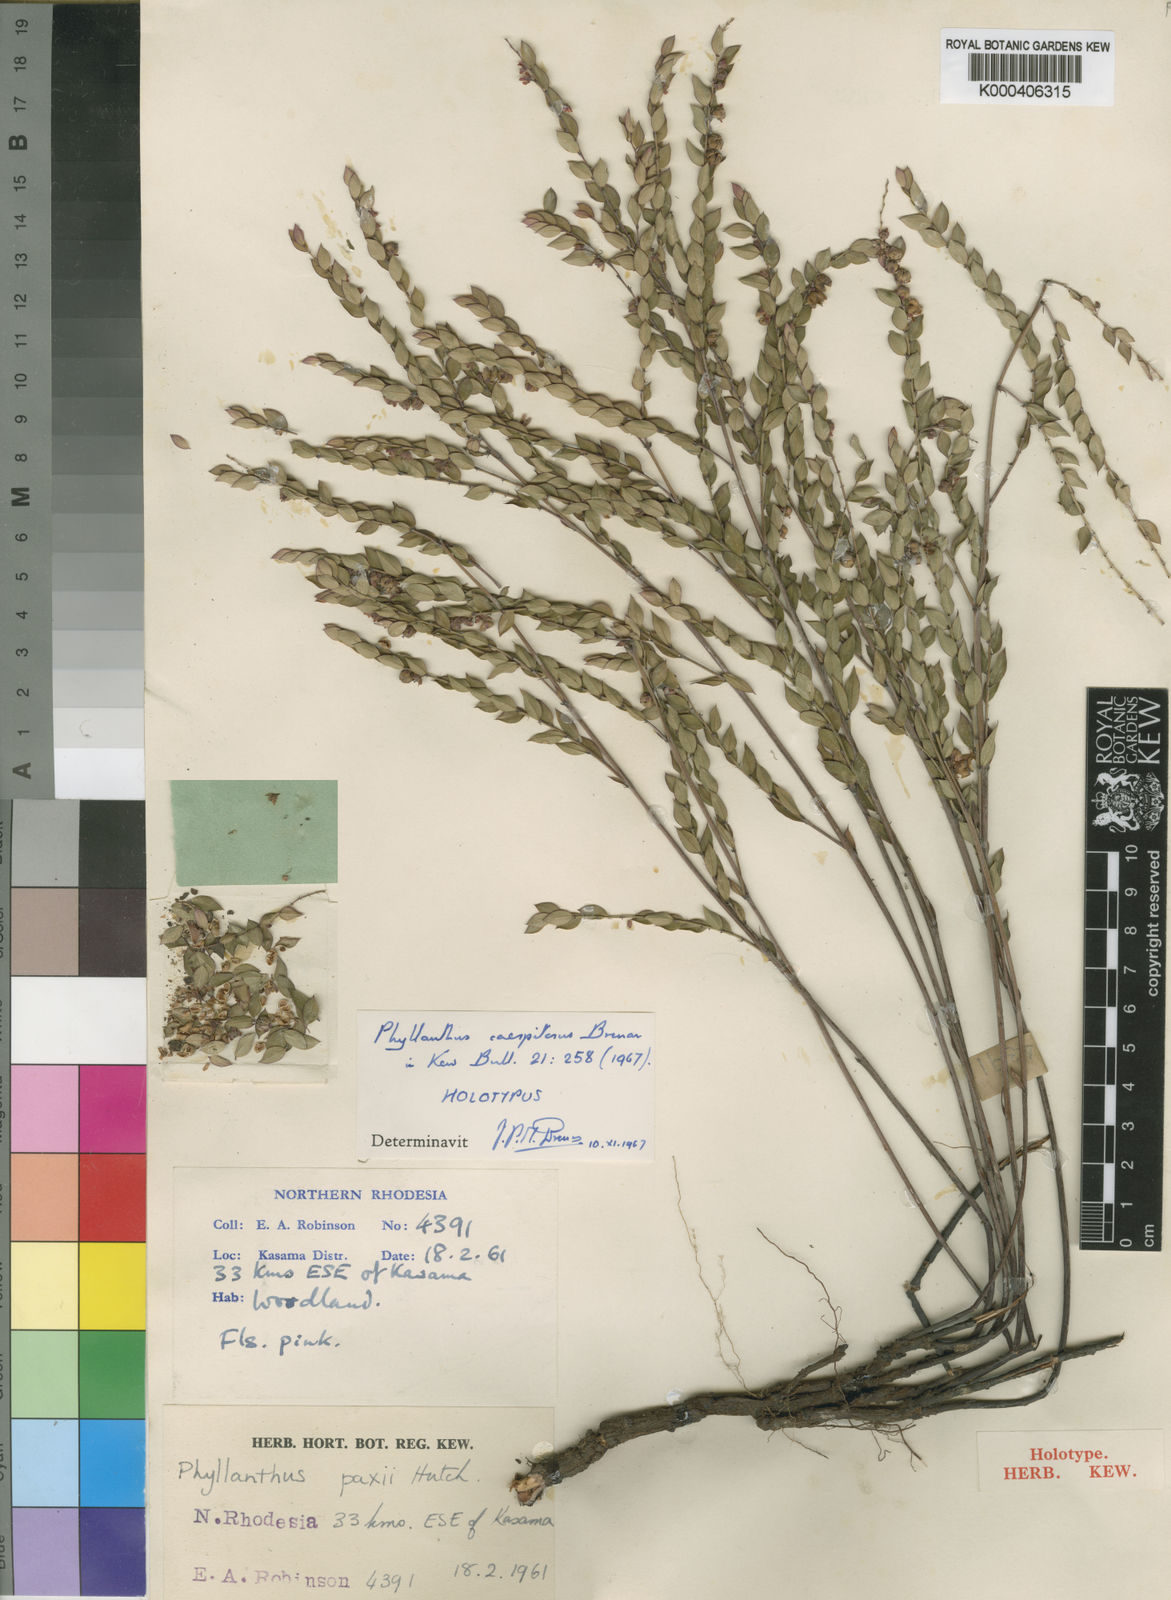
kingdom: Plantae
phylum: Tracheophyta
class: Magnoliopsida
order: Malpighiales
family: Phyllanthaceae
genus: Phyllanthus
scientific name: Phyllanthus caespitosus
